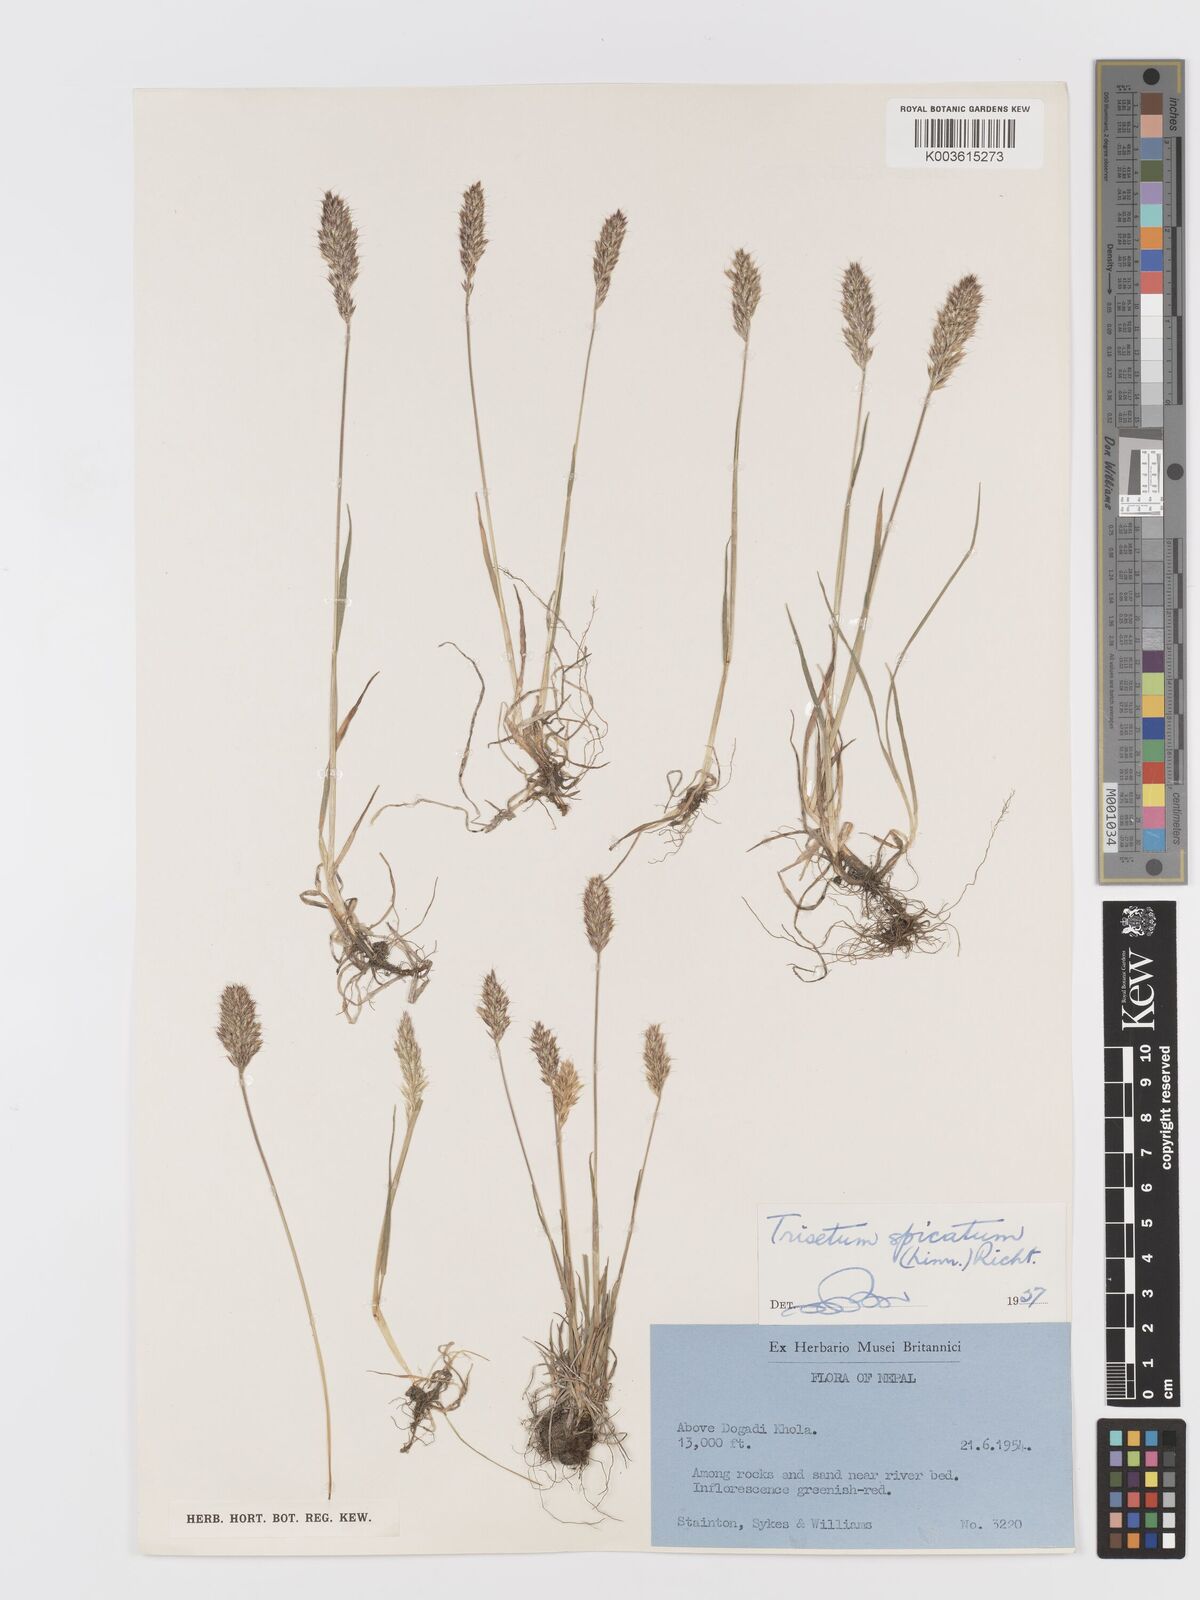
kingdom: Plantae
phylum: Tracheophyta
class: Liliopsida
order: Poales
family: Poaceae
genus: Koeleria
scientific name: Koeleria spicata
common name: Mountain trisetum
